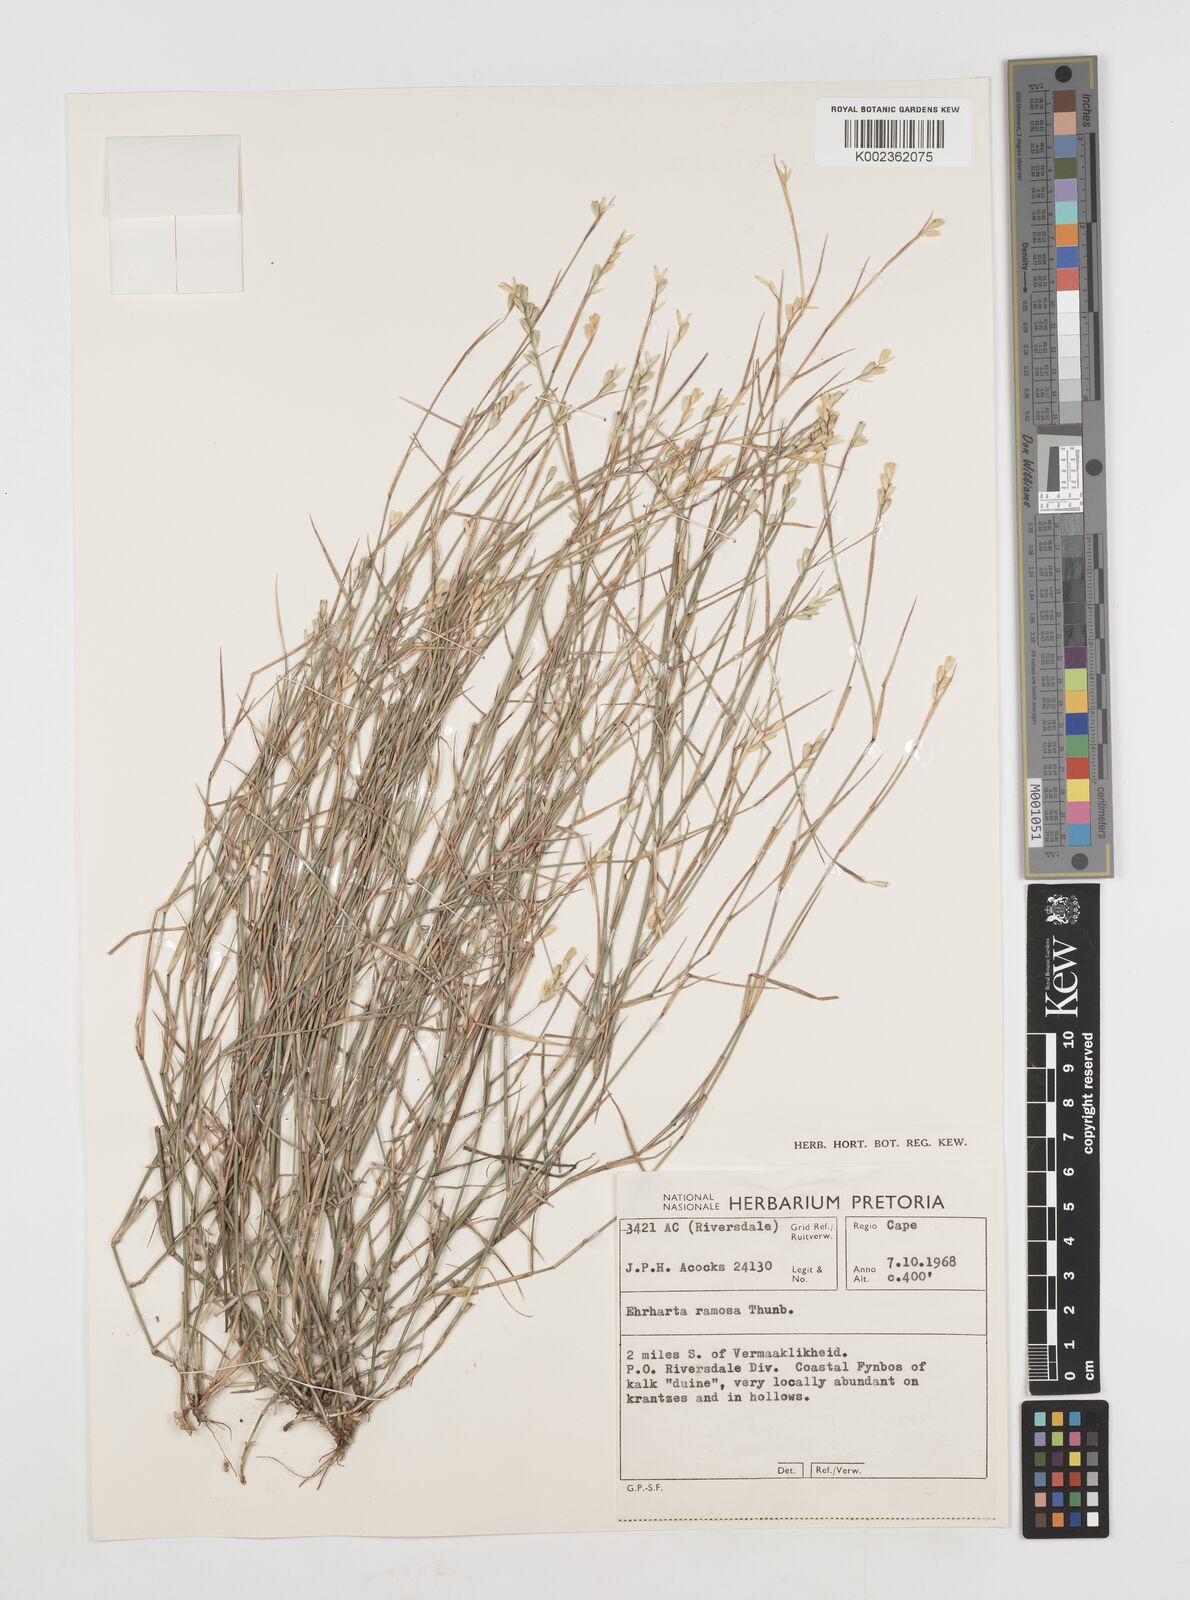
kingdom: Plantae
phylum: Tracheophyta
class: Liliopsida
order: Poales
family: Poaceae
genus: Ehrharta
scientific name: Ehrharta rehmannii
